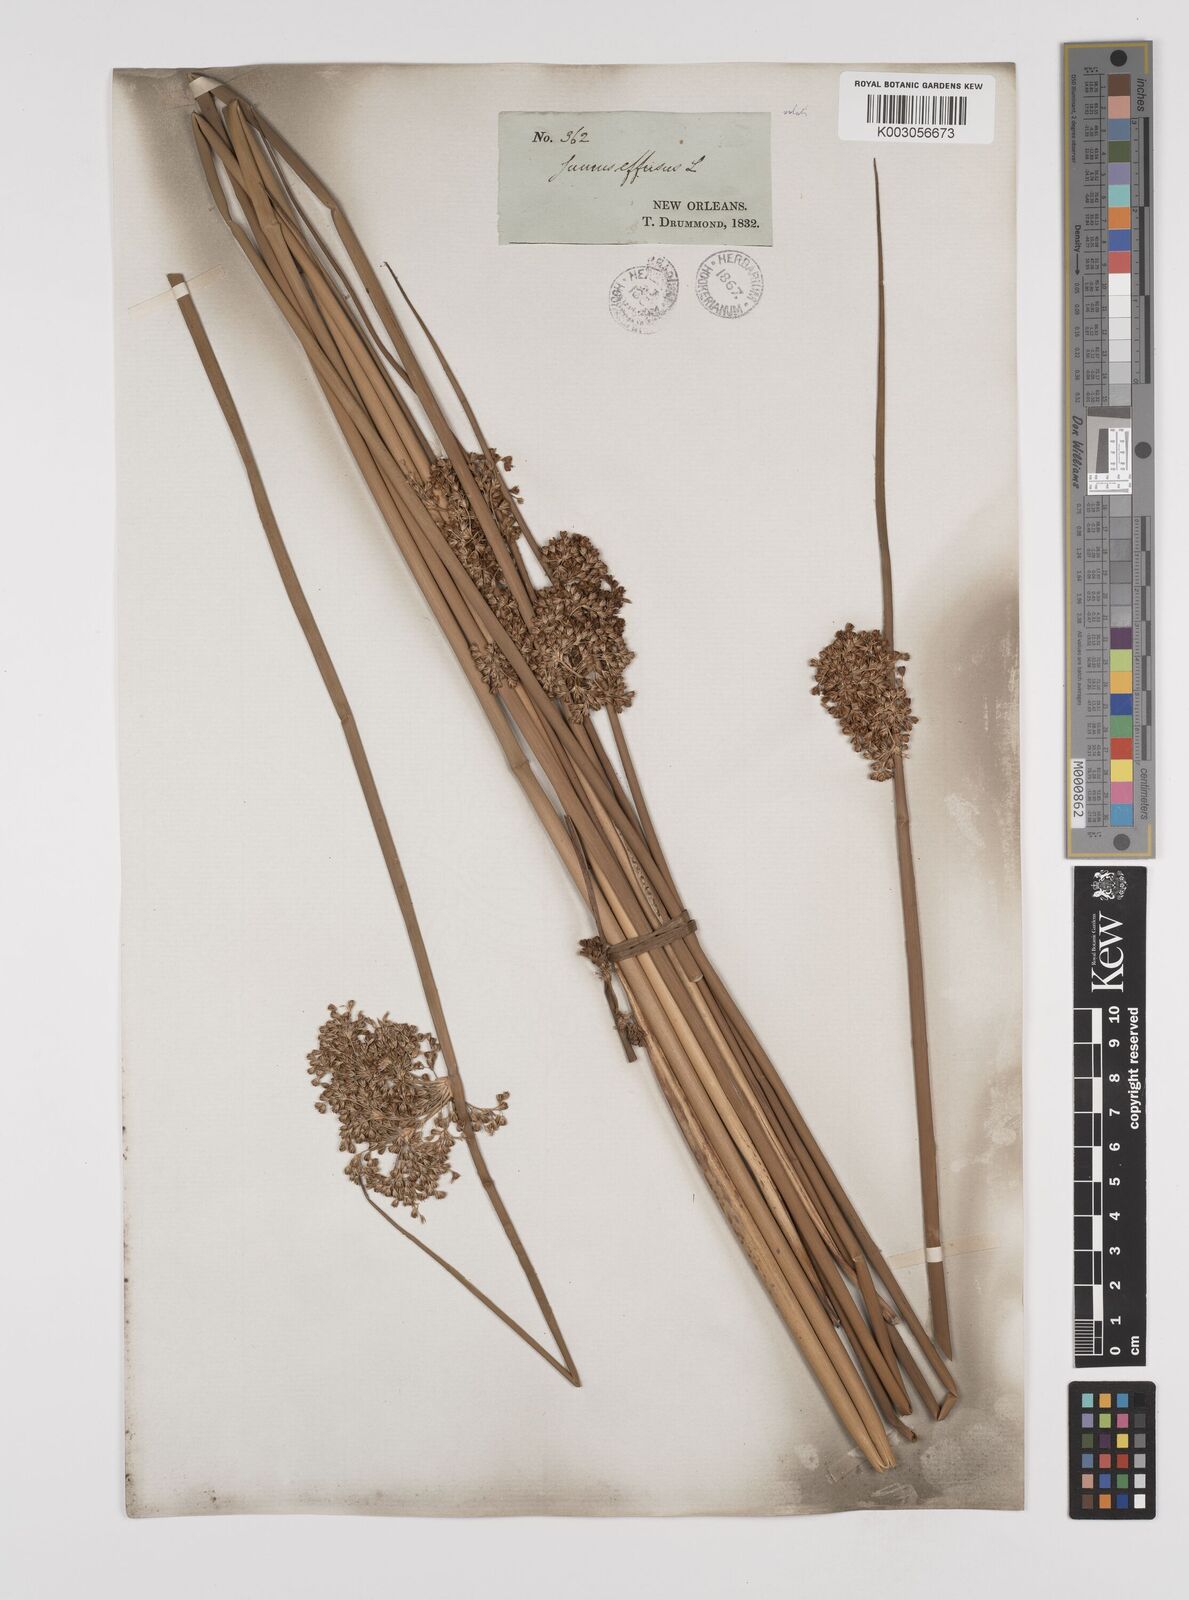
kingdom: Plantae
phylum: Tracheophyta
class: Liliopsida
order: Poales
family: Juncaceae
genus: Juncus
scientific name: Juncus effusus
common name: Soft rush
